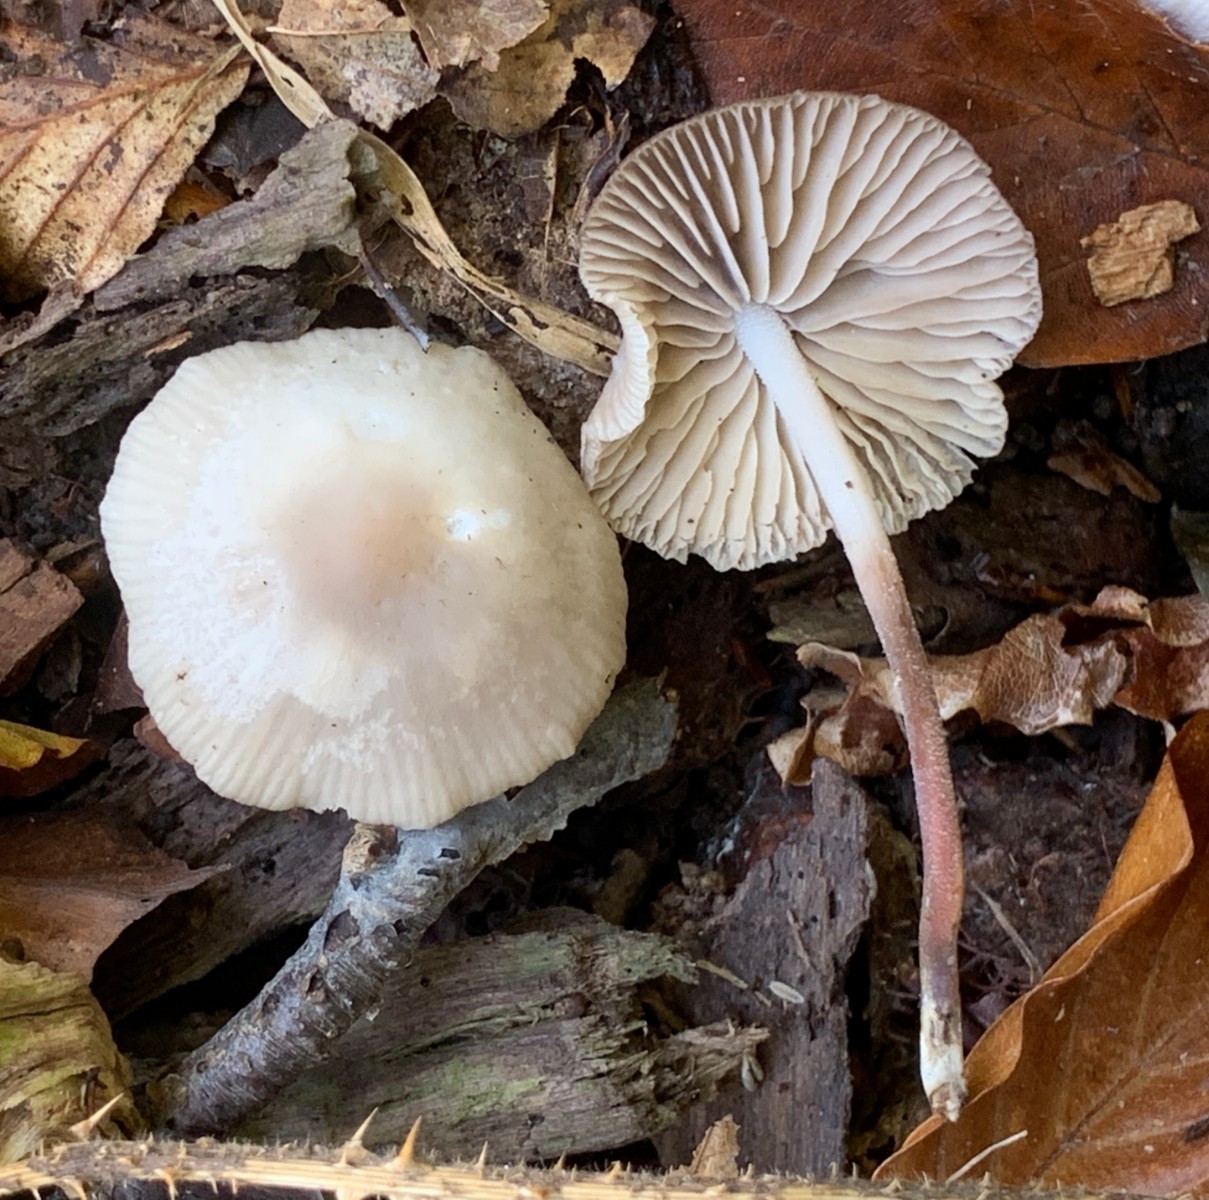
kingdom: Fungi
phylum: Basidiomycota
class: Agaricomycetes
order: Agaricales
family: Marasmiaceae
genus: Marasmius
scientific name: Marasmius wynneae
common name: hvælvet bruskhat
